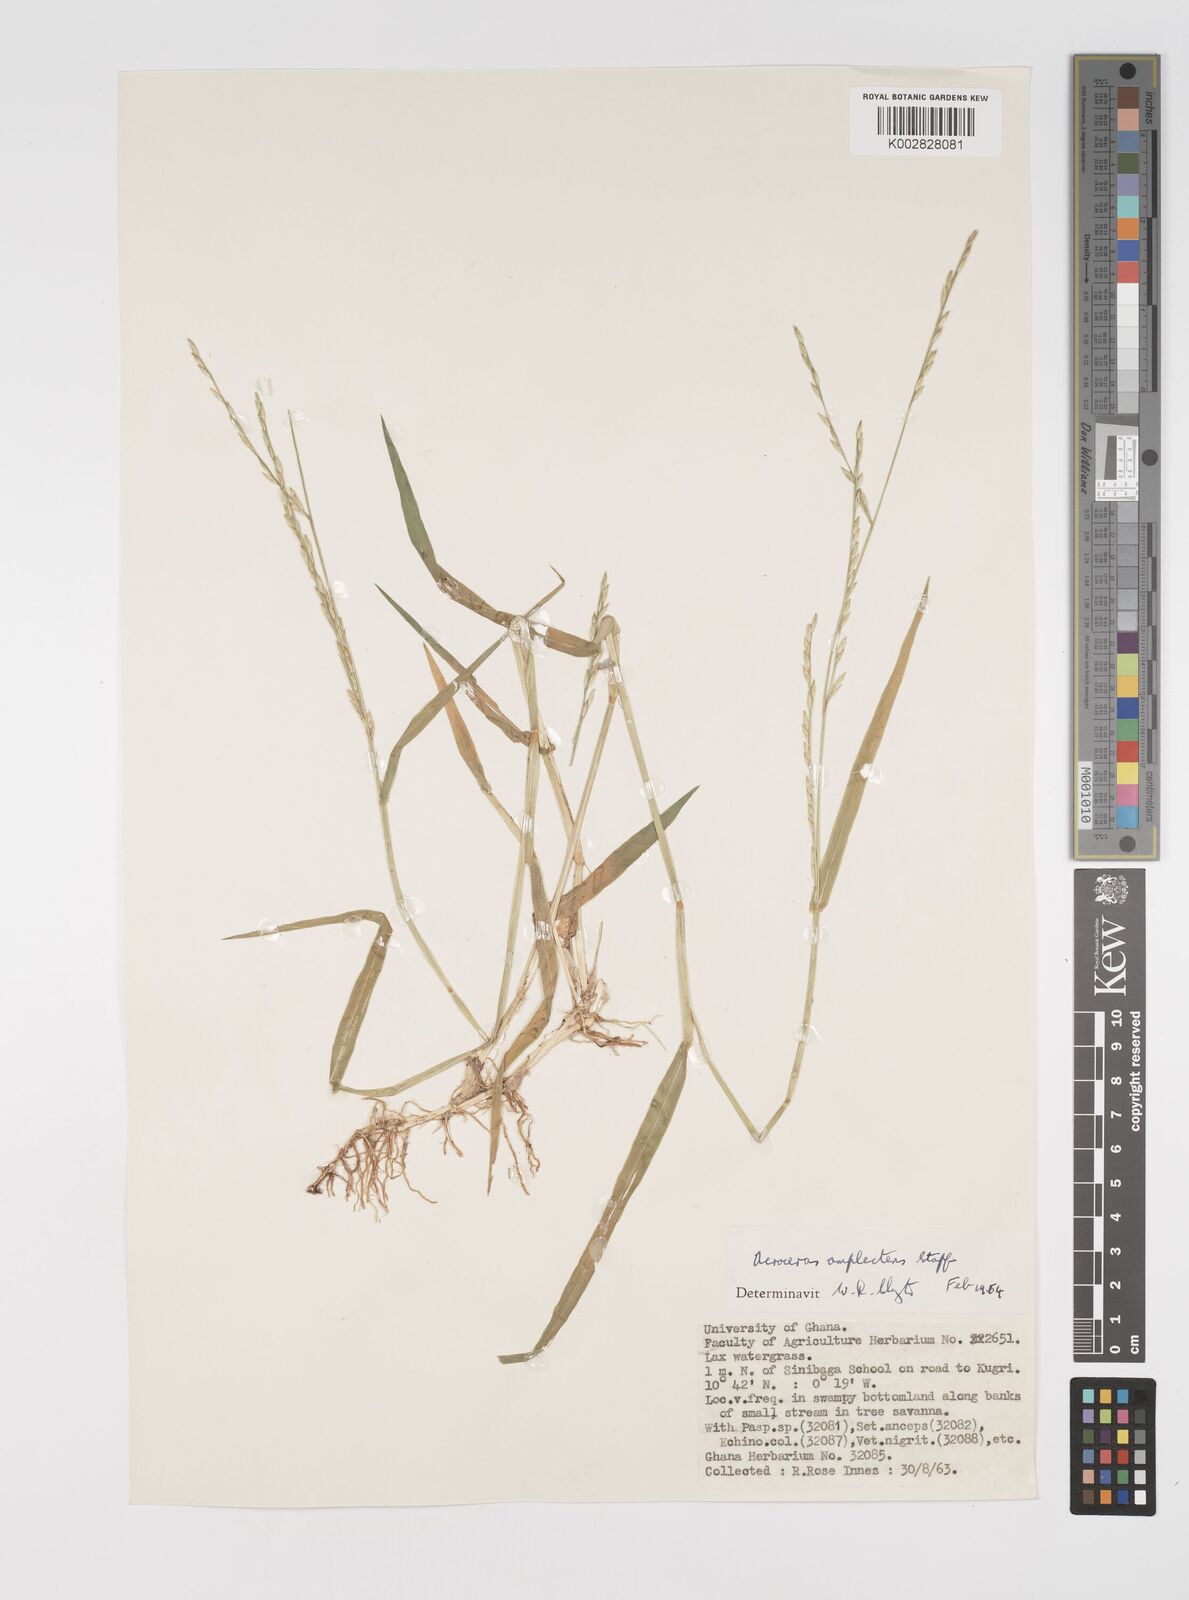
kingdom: Plantae
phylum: Tracheophyta
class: Liliopsida
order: Poales
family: Poaceae
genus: Acroceras
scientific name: Acroceras amplectens
